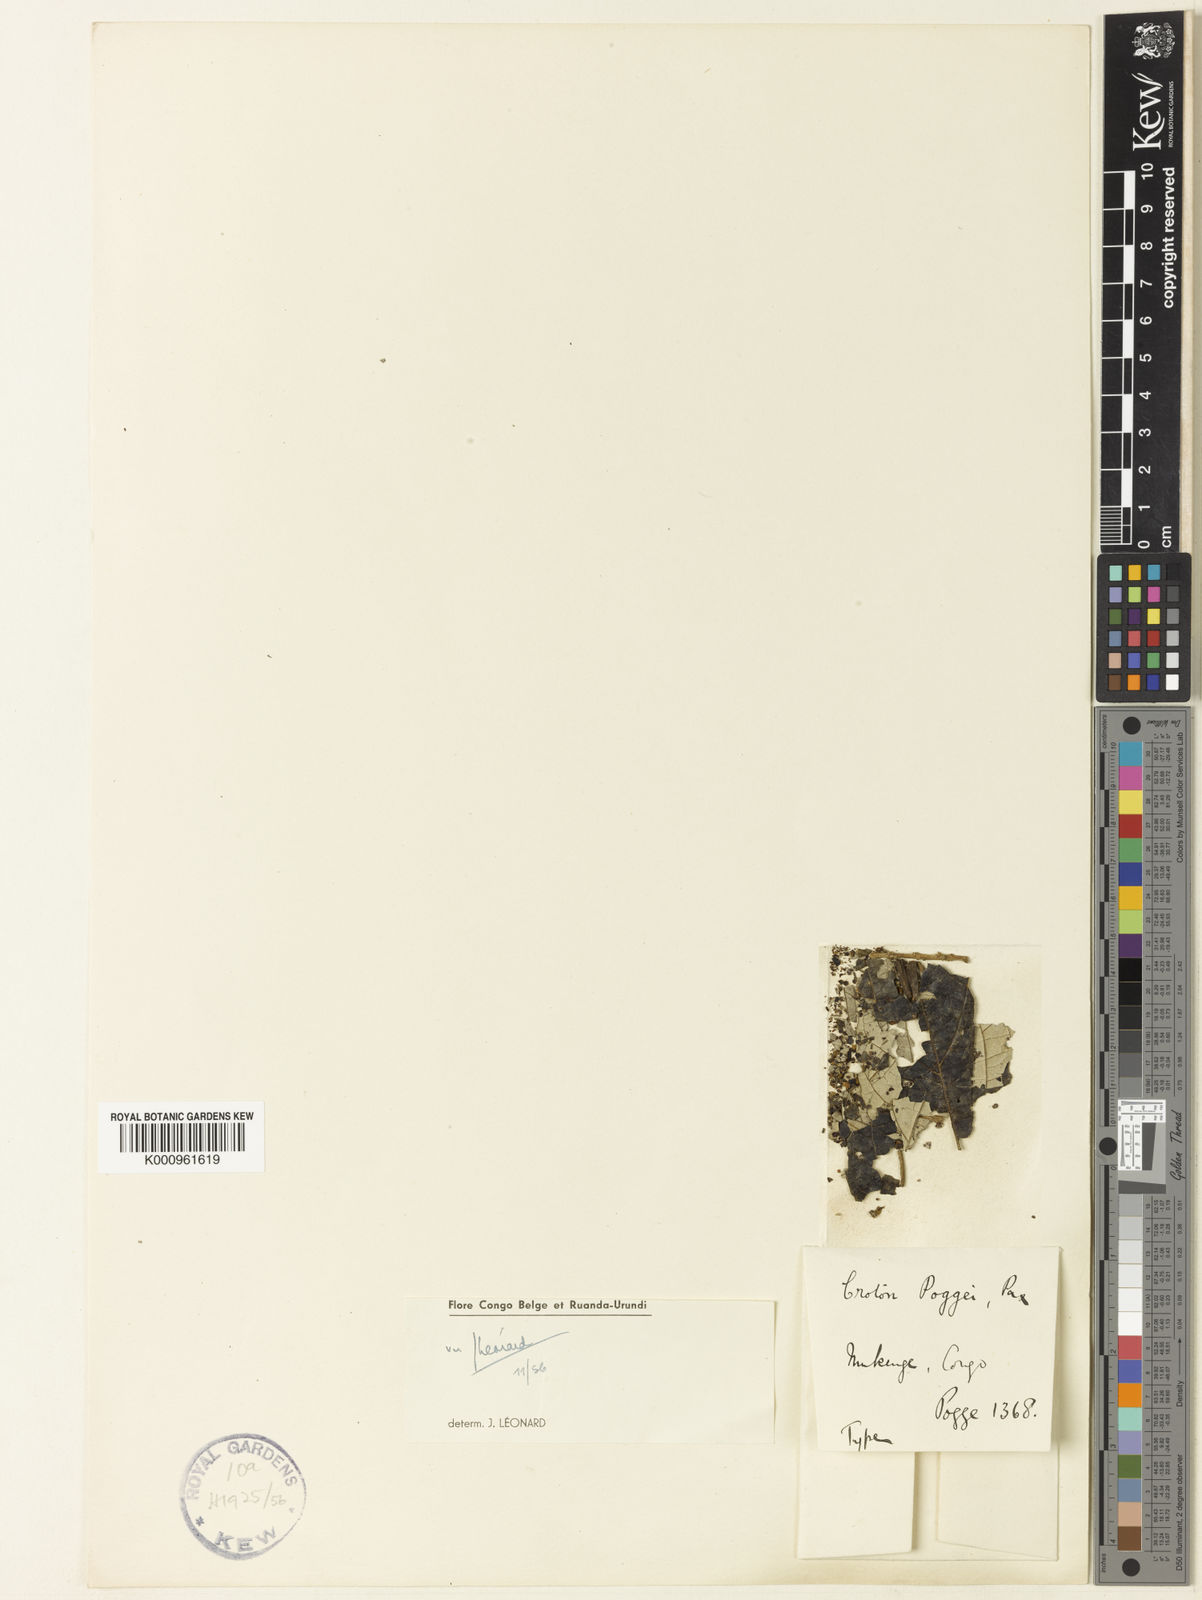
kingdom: Plantae
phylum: Tracheophyta
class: Magnoliopsida
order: Malpighiales
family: Euphorbiaceae
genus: Croton
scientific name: Croton poggei
